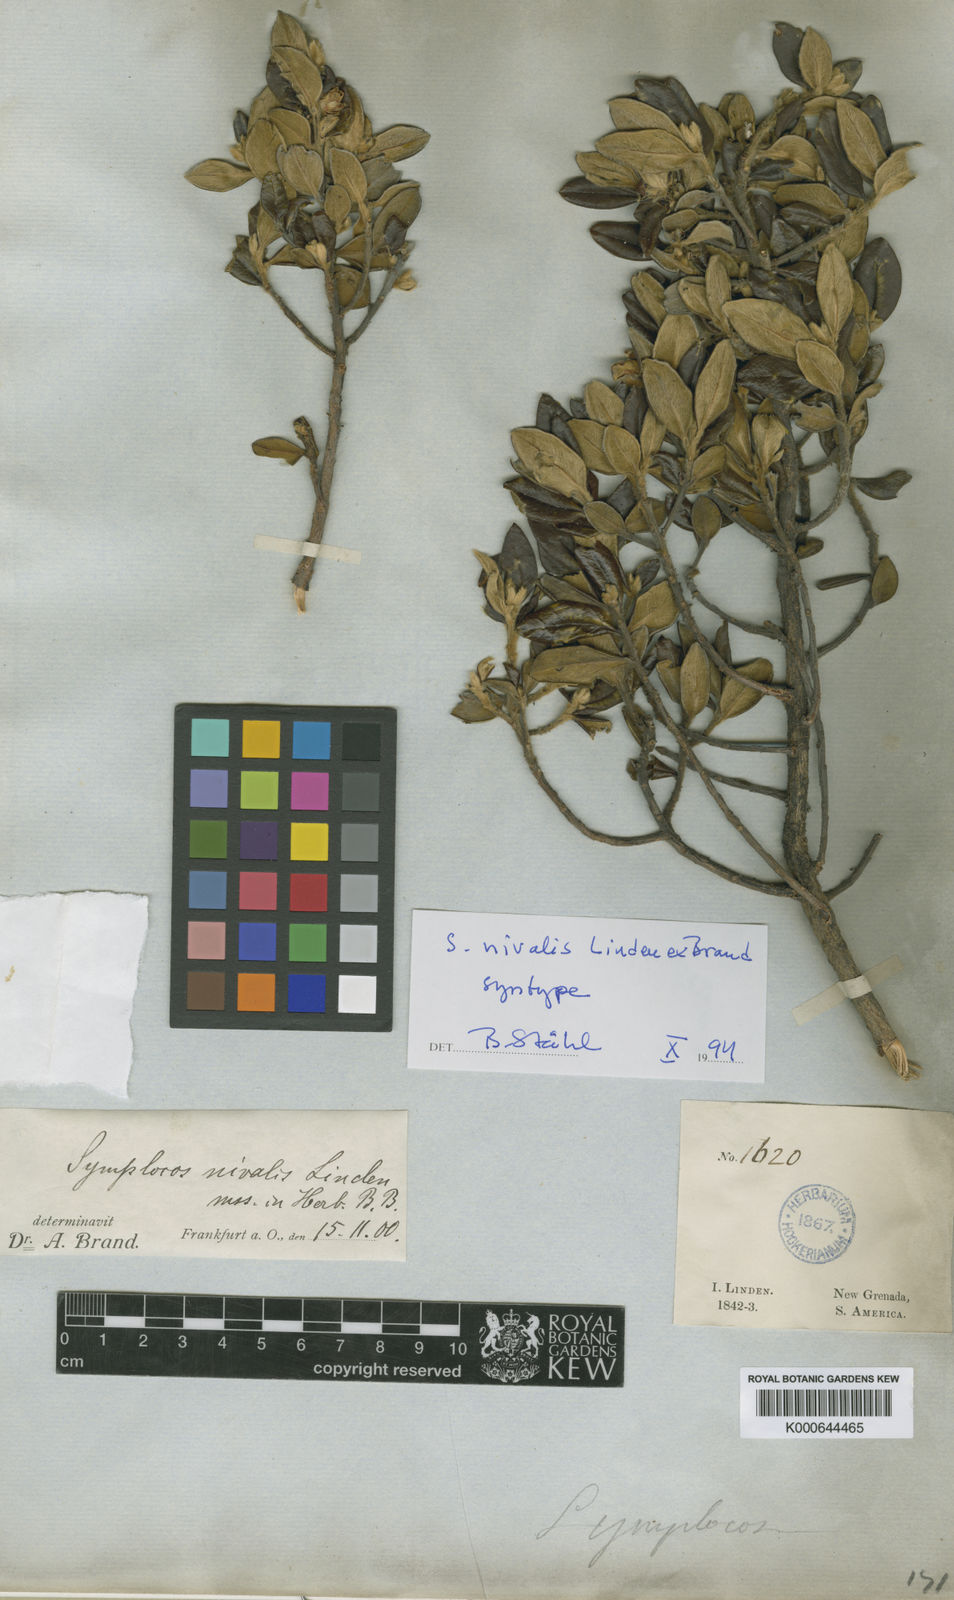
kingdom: Plantae
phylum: Tracheophyta
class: Magnoliopsida
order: Ericales
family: Symplocaceae
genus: Symplocos
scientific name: Symplocos nivalis
